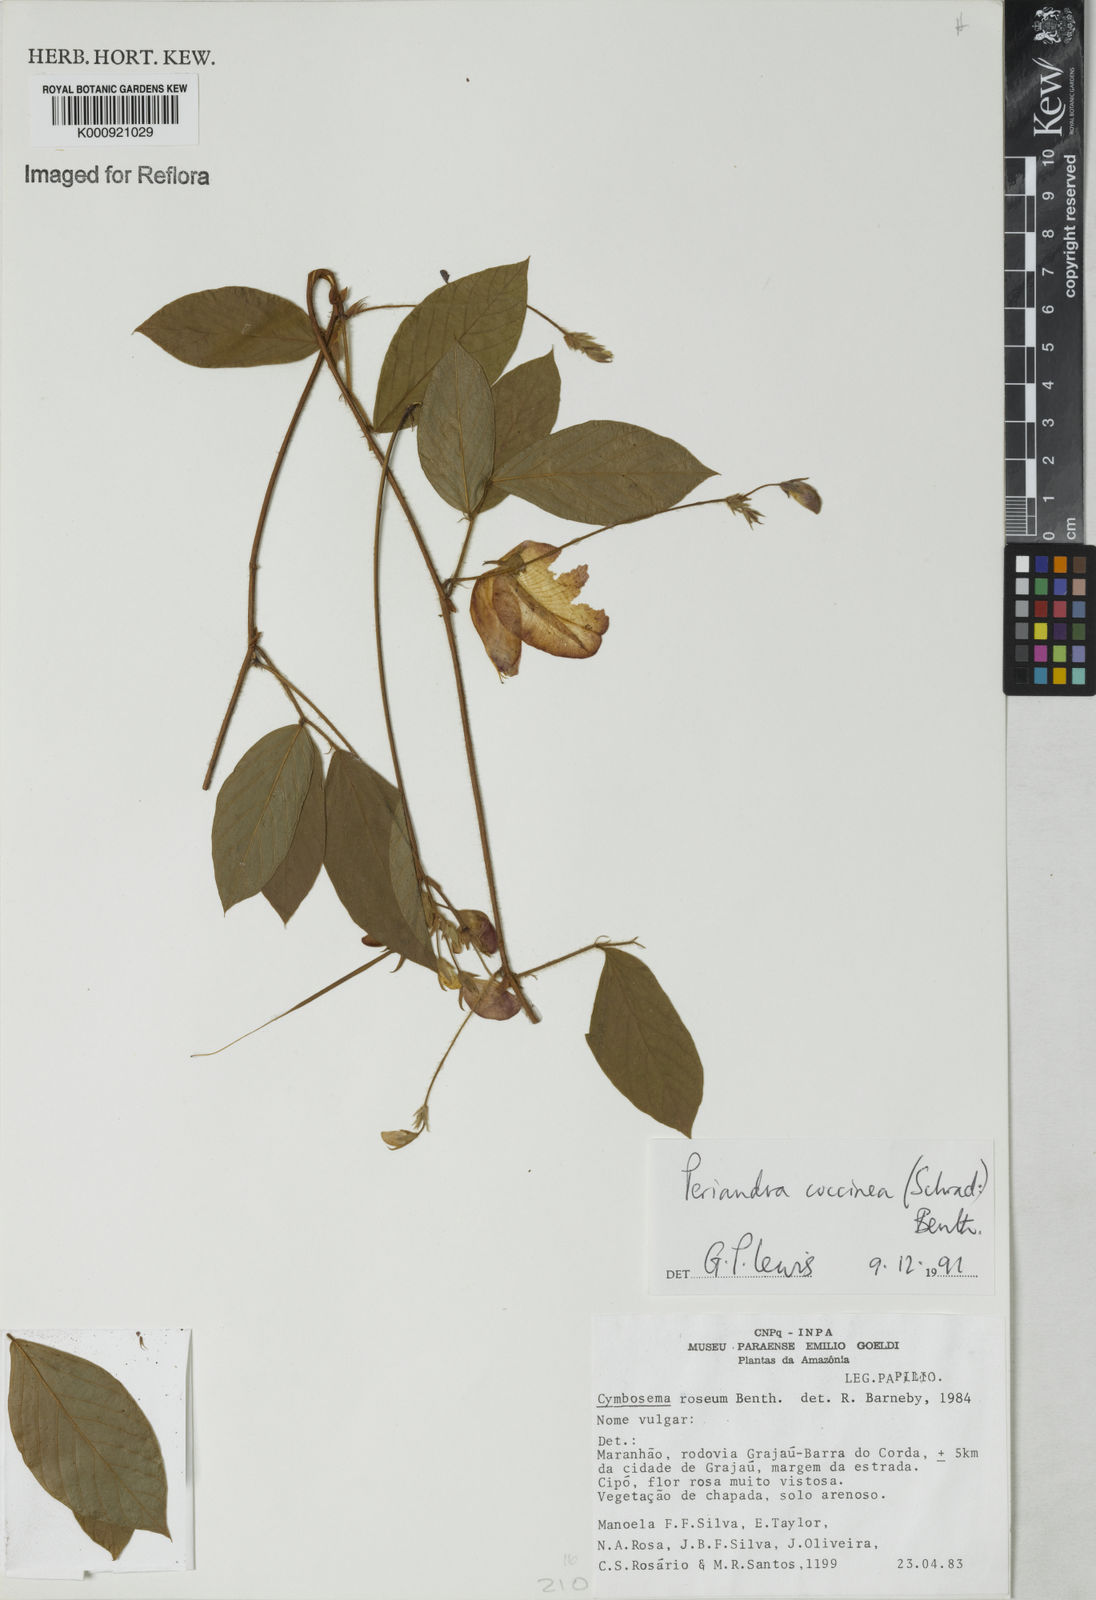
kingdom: Plantae
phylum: Tracheophyta
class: Magnoliopsida
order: Fabales
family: Fabaceae
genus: Periandra
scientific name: Periandra coccinea
